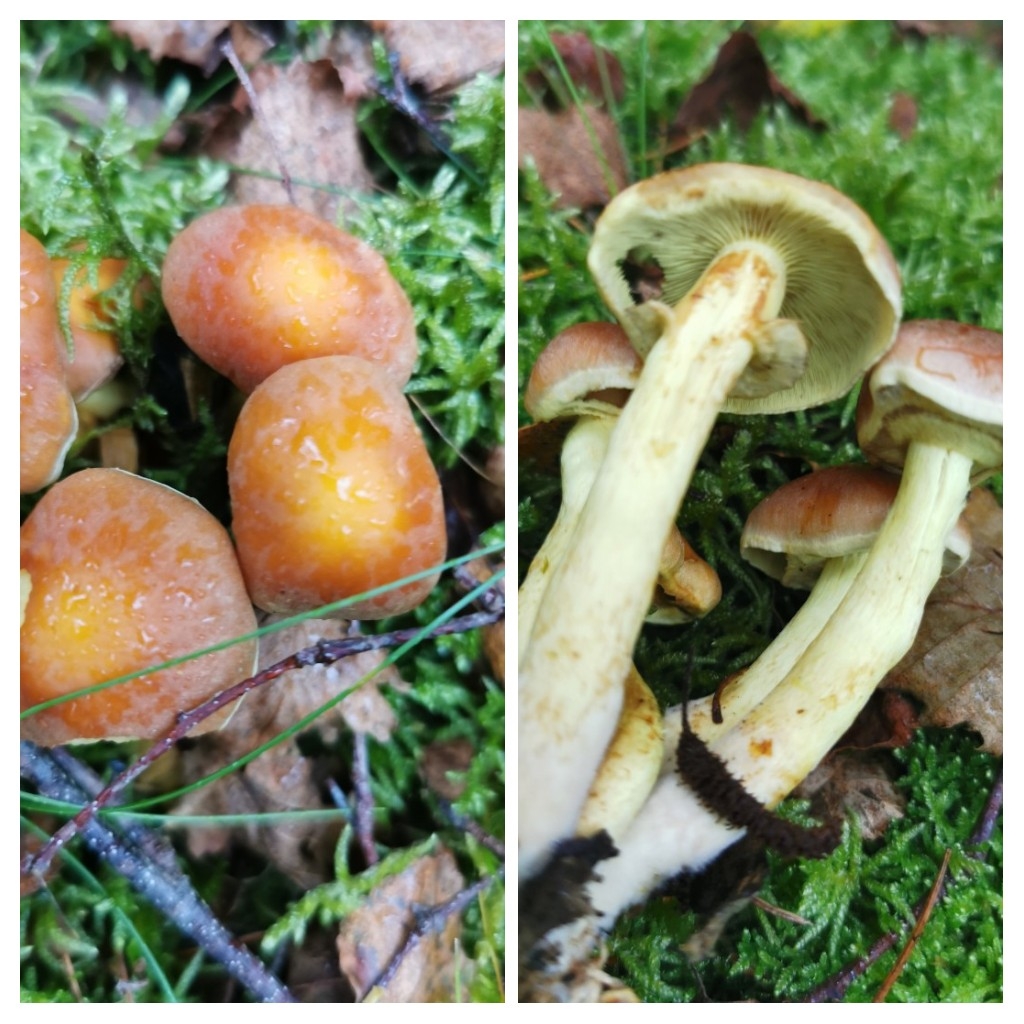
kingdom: Fungi
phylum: Basidiomycota
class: Agaricomycetes
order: Agaricales
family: Strophariaceae
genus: Hypholoma
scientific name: Hypholoma fasciculare
